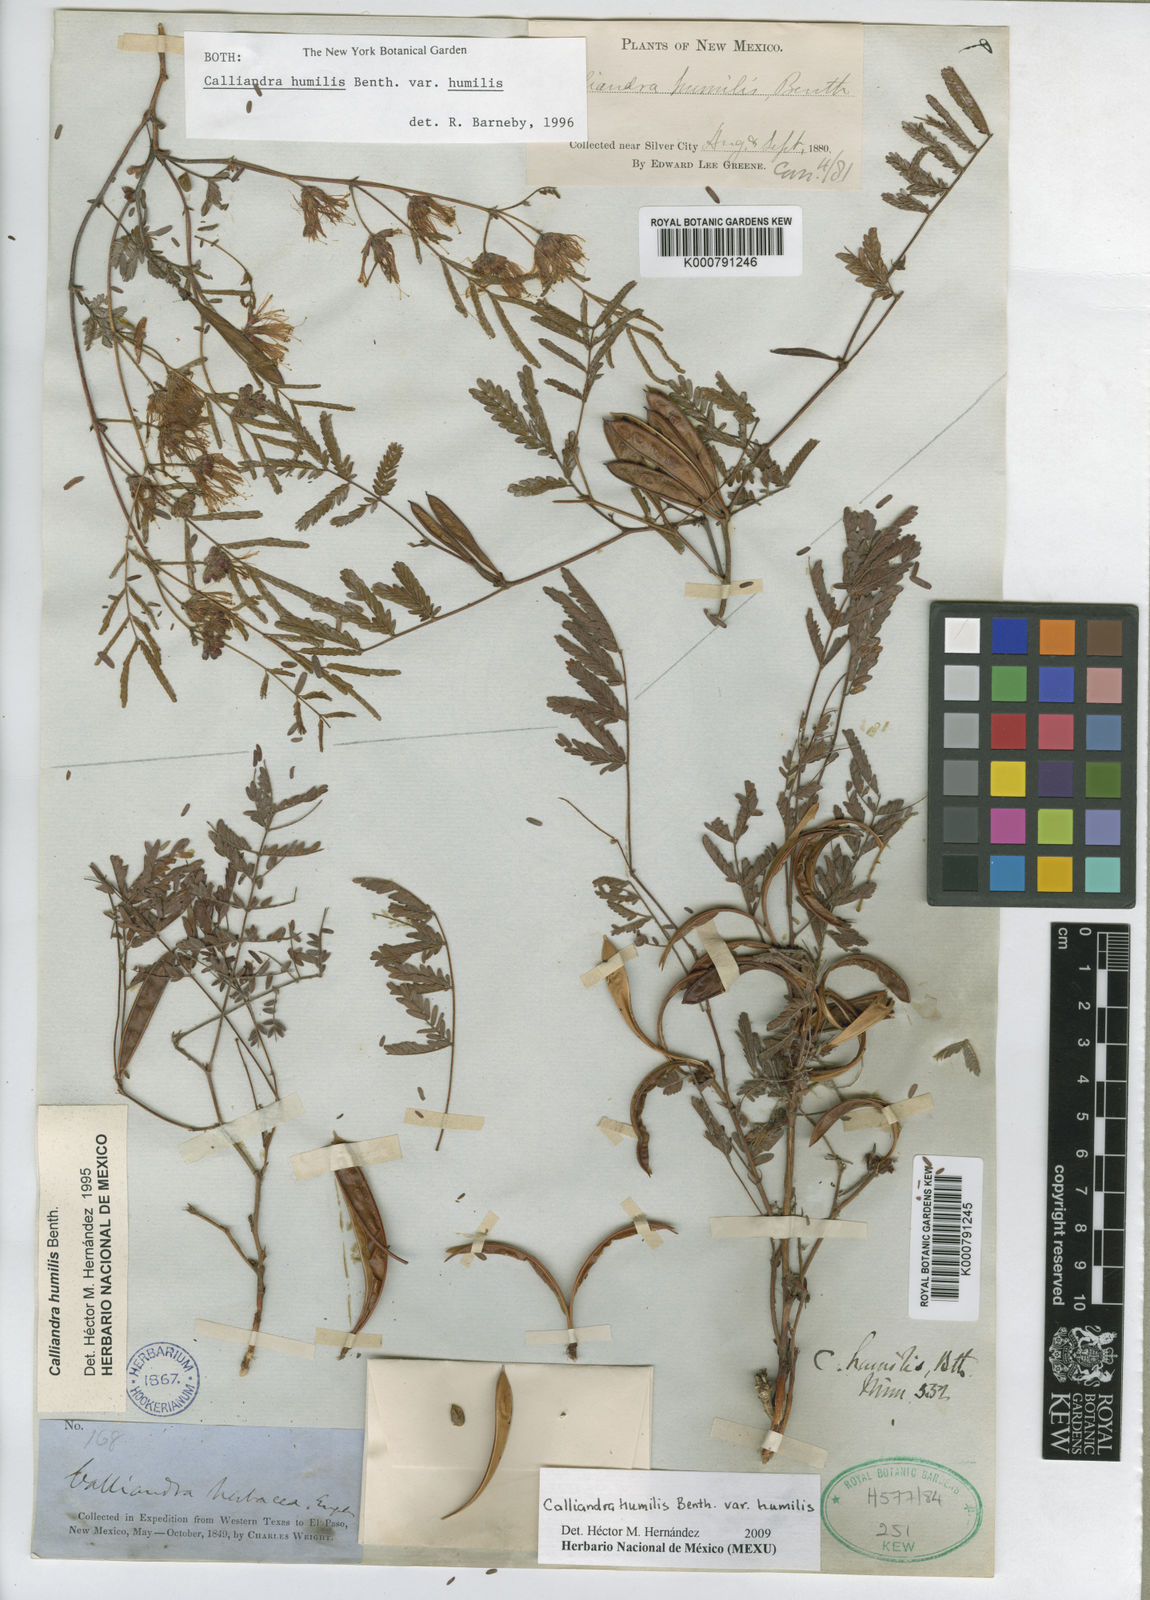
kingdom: Plantae
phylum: Tracheophyta
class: Magnoliopsida
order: Fabales
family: Fabaceae
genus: Calliandra
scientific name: Calliandra humilis
